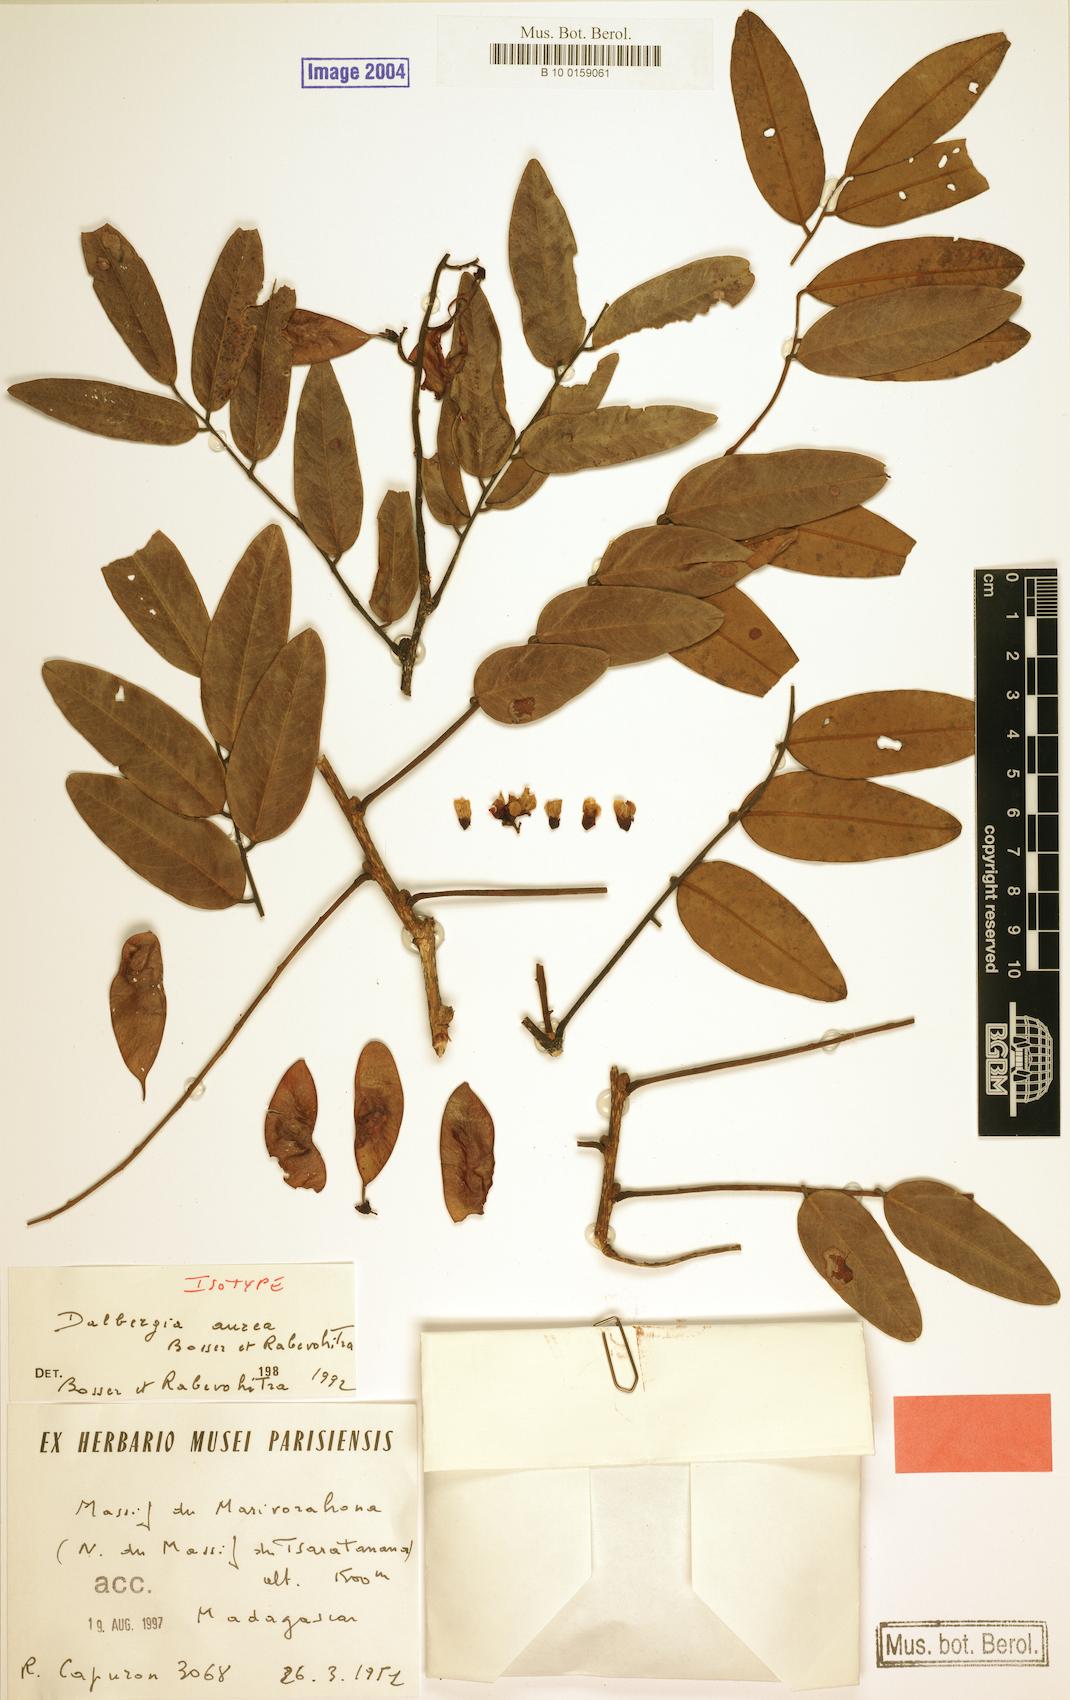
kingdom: Plantae
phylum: Tracheophyta
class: Magnoliopsida
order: Fabales
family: Fabaceae
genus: Dalbergia
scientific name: Dalbergia aurea
